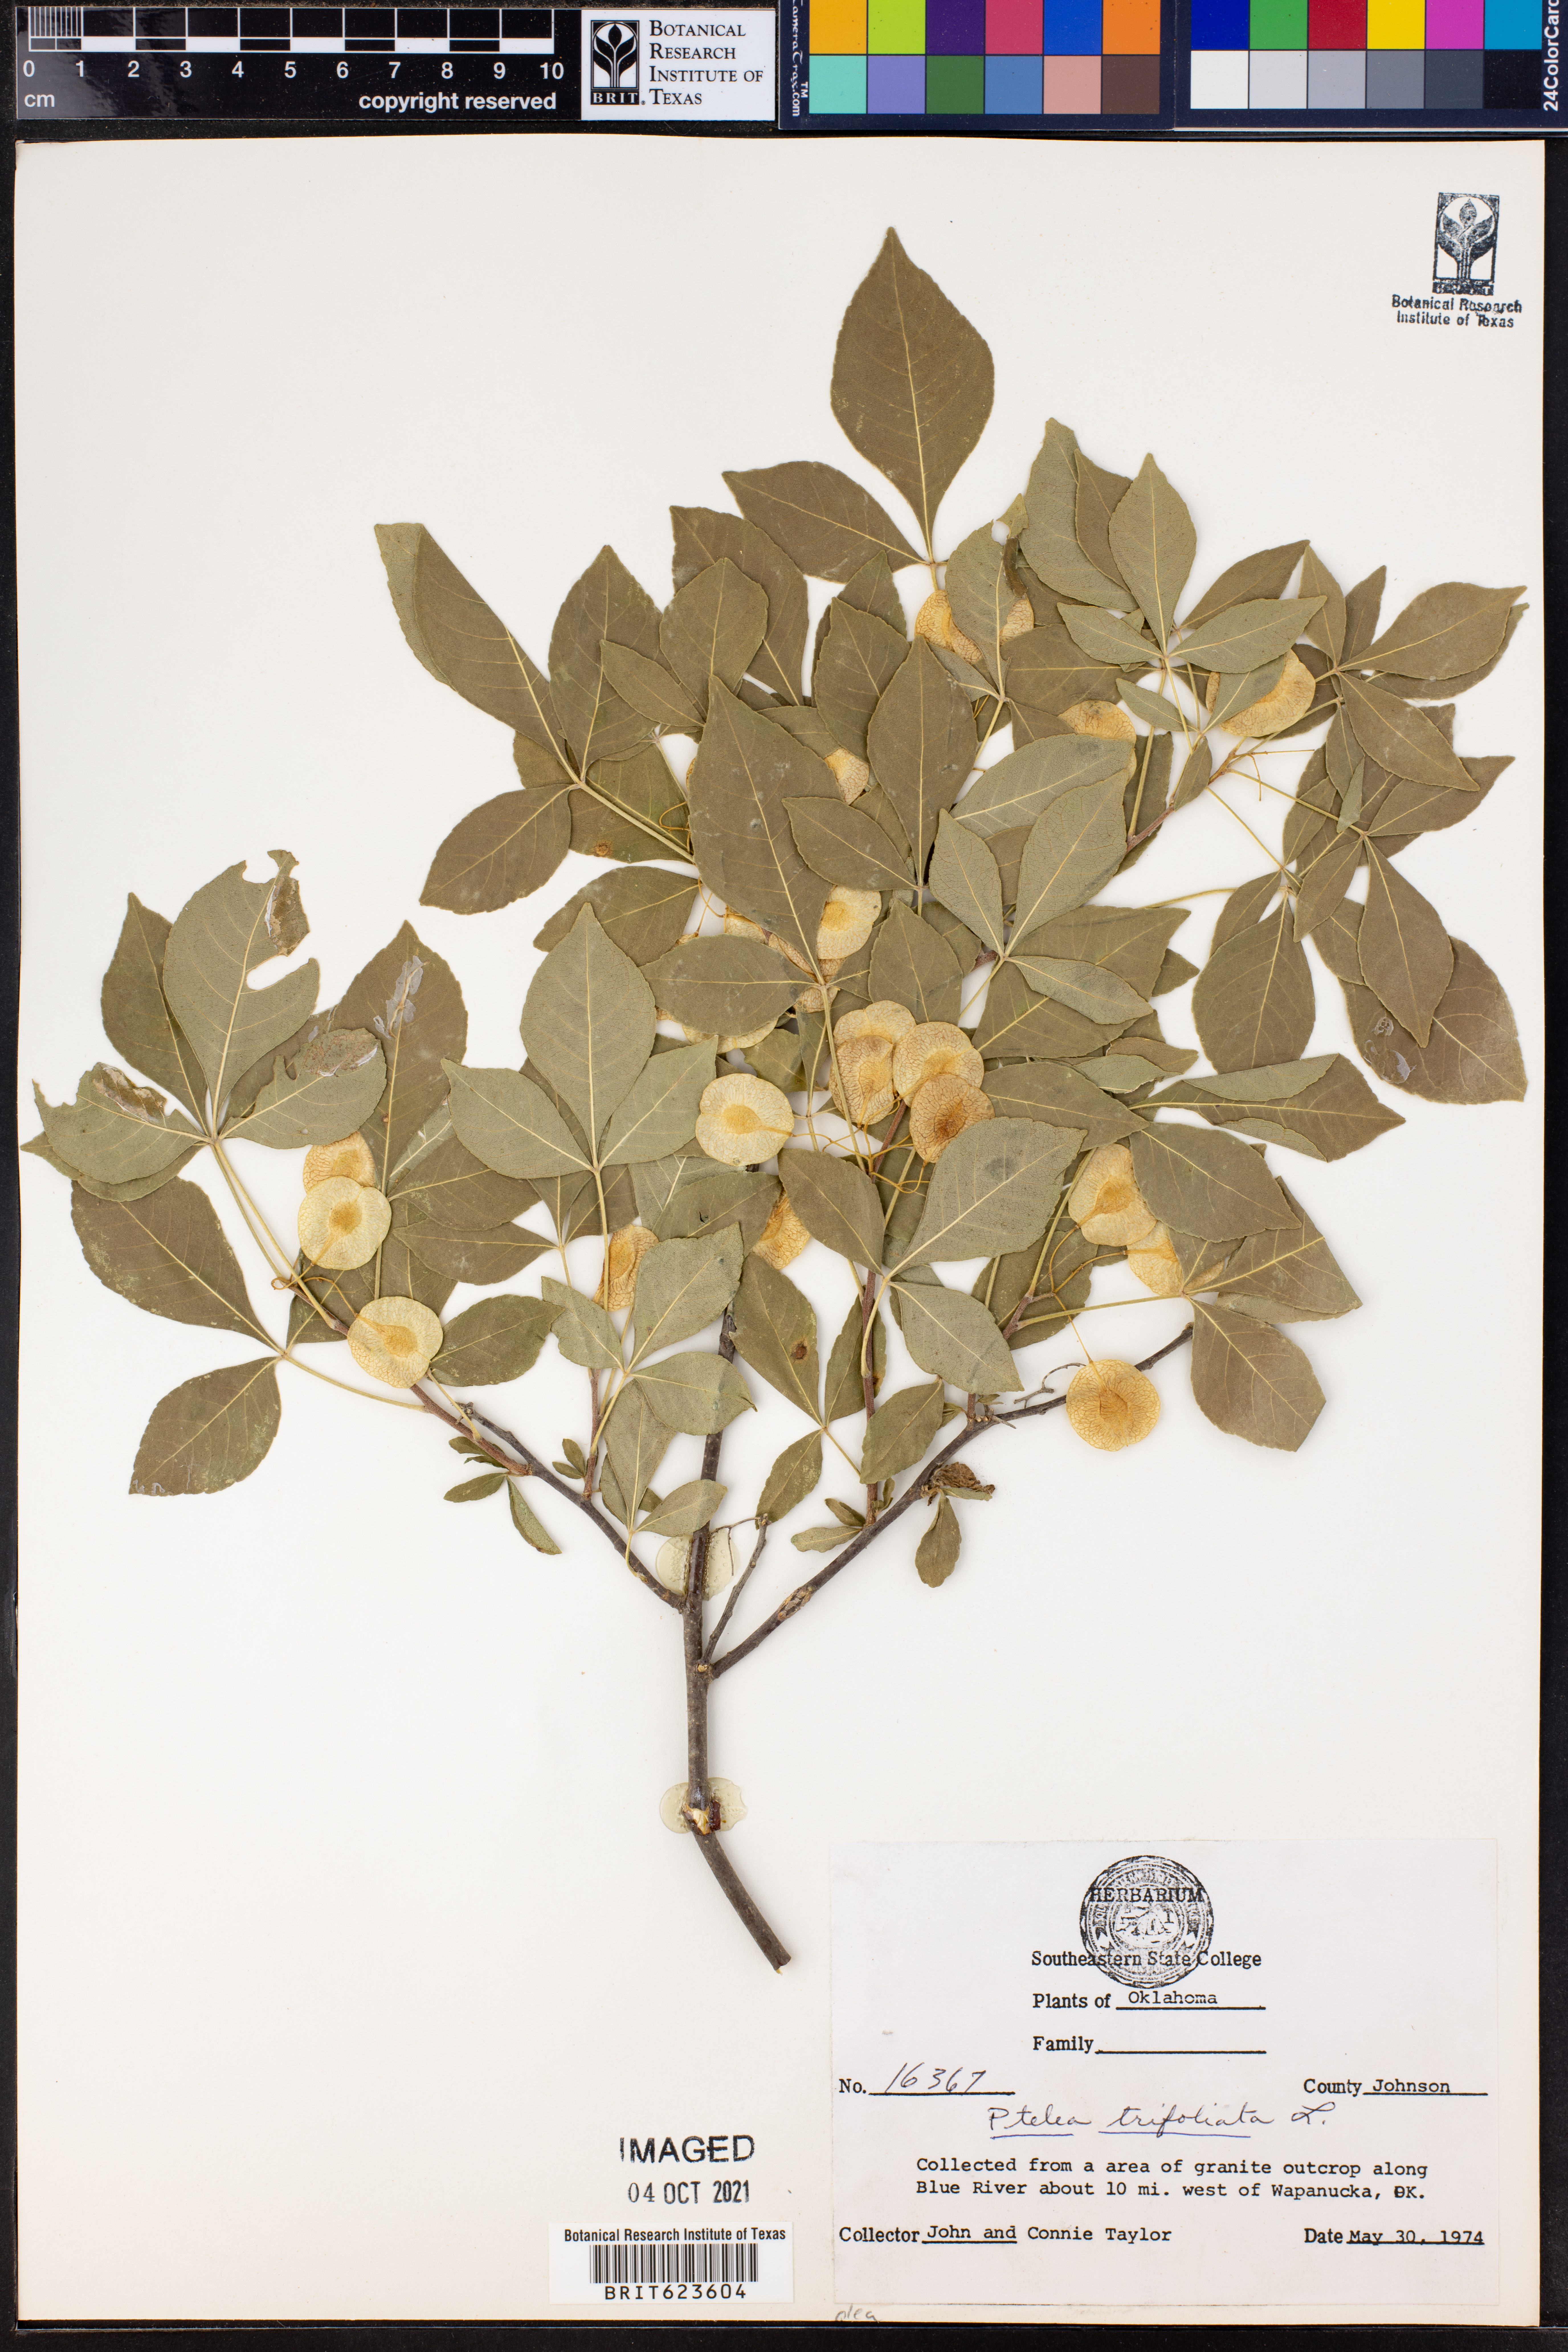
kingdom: Plantae
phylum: Tracheophyta
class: Magnoliopsida
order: Sapindales
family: Rutaceae
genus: Ptelea
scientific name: Ptelea trifoliata
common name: Common hop-tree
